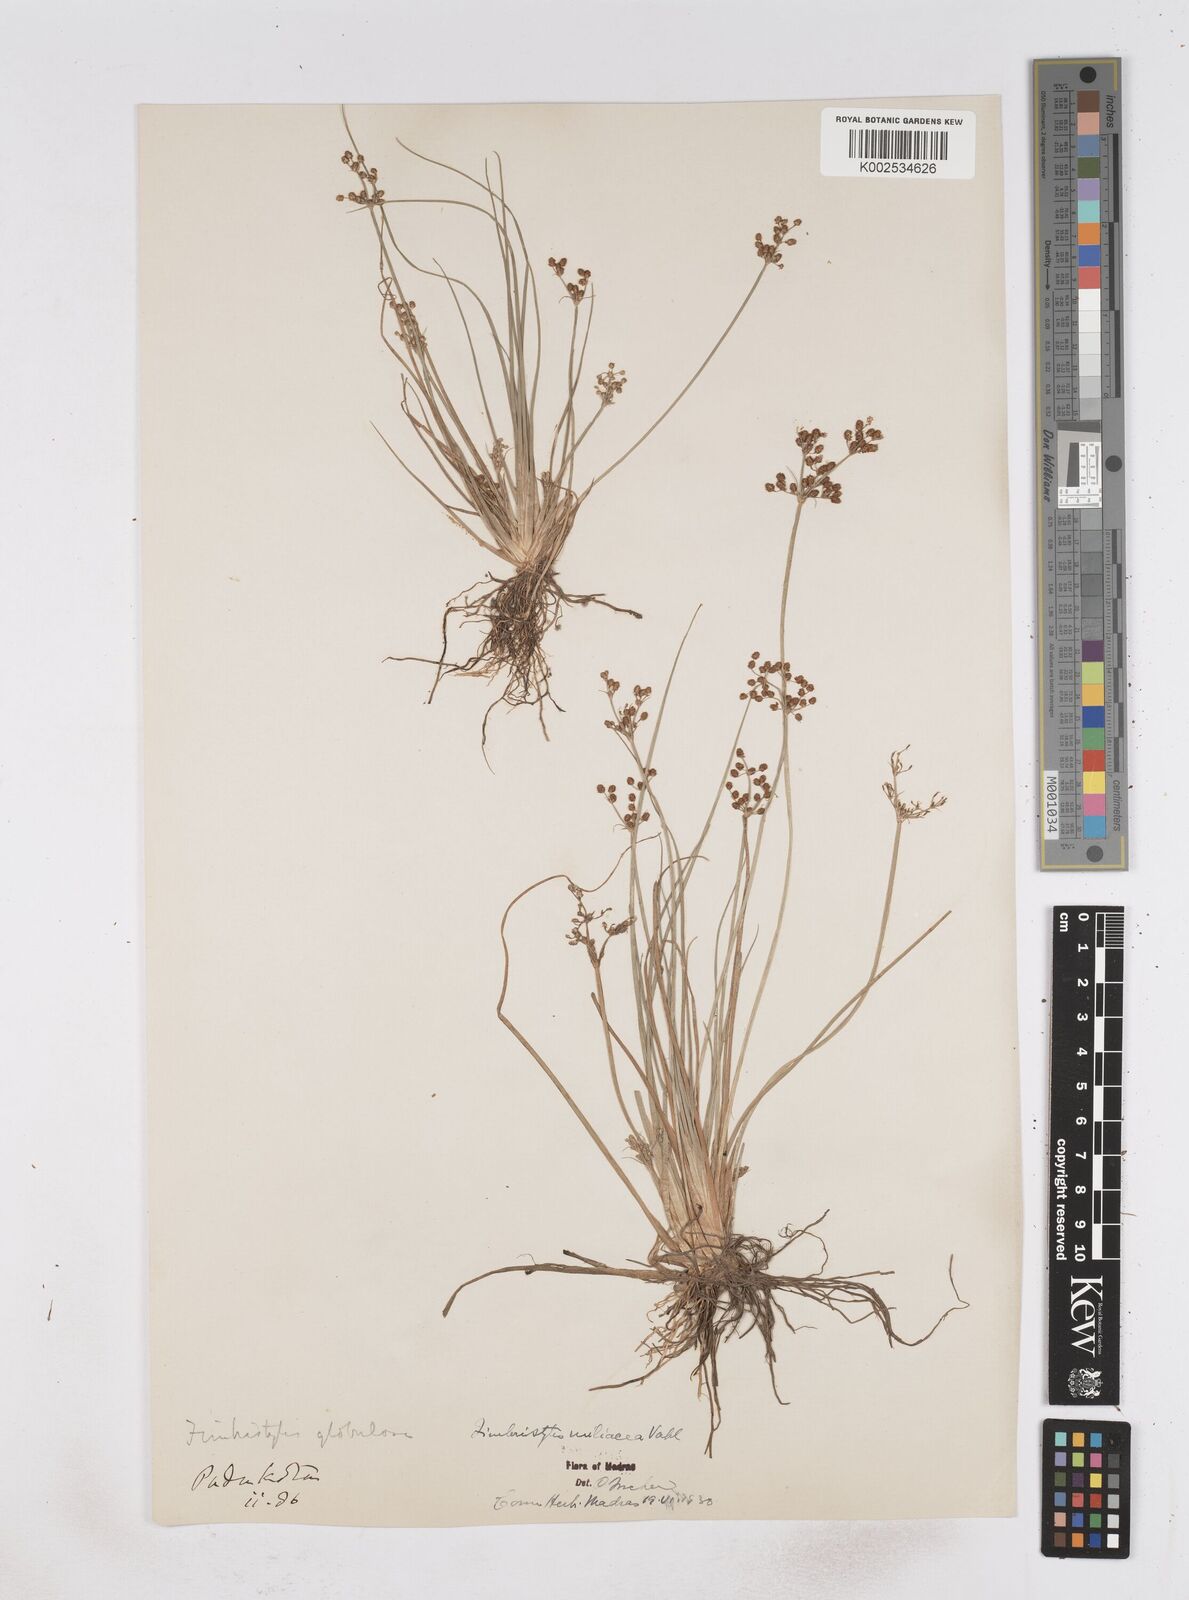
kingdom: Plantae
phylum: Tracheophyta
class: Liliopsida
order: Poales
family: Cyperaceae
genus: Fimbristylis
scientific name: Fimbristylis littoralis
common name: Fimbry
